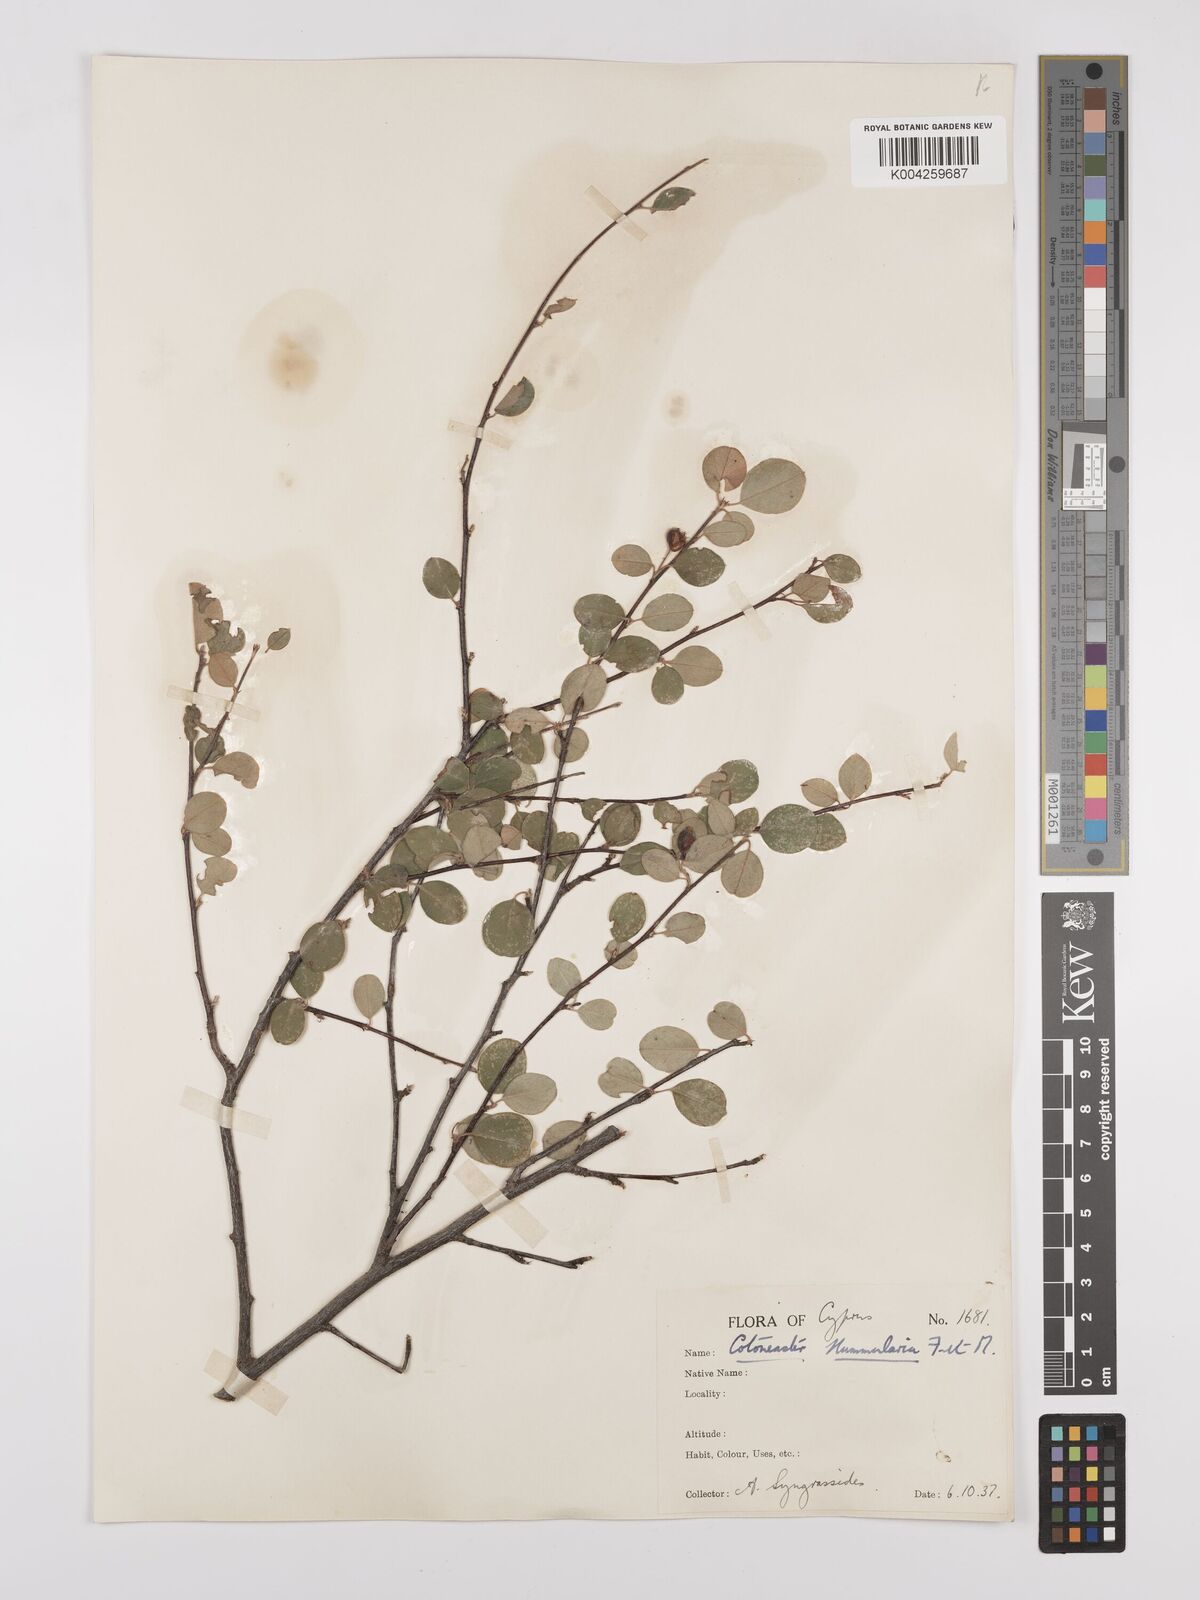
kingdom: Plantae
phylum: Tracheophyta
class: Magnoliopsida
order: Rosales
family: Rosaceae
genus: Cotoneaster
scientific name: Cotoneaster nummularius
